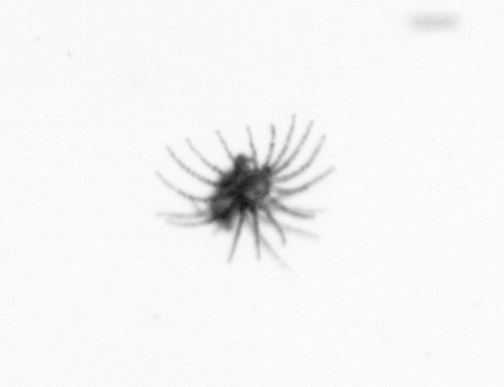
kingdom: Animalia
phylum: Cnidaria
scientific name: Cnidaria
